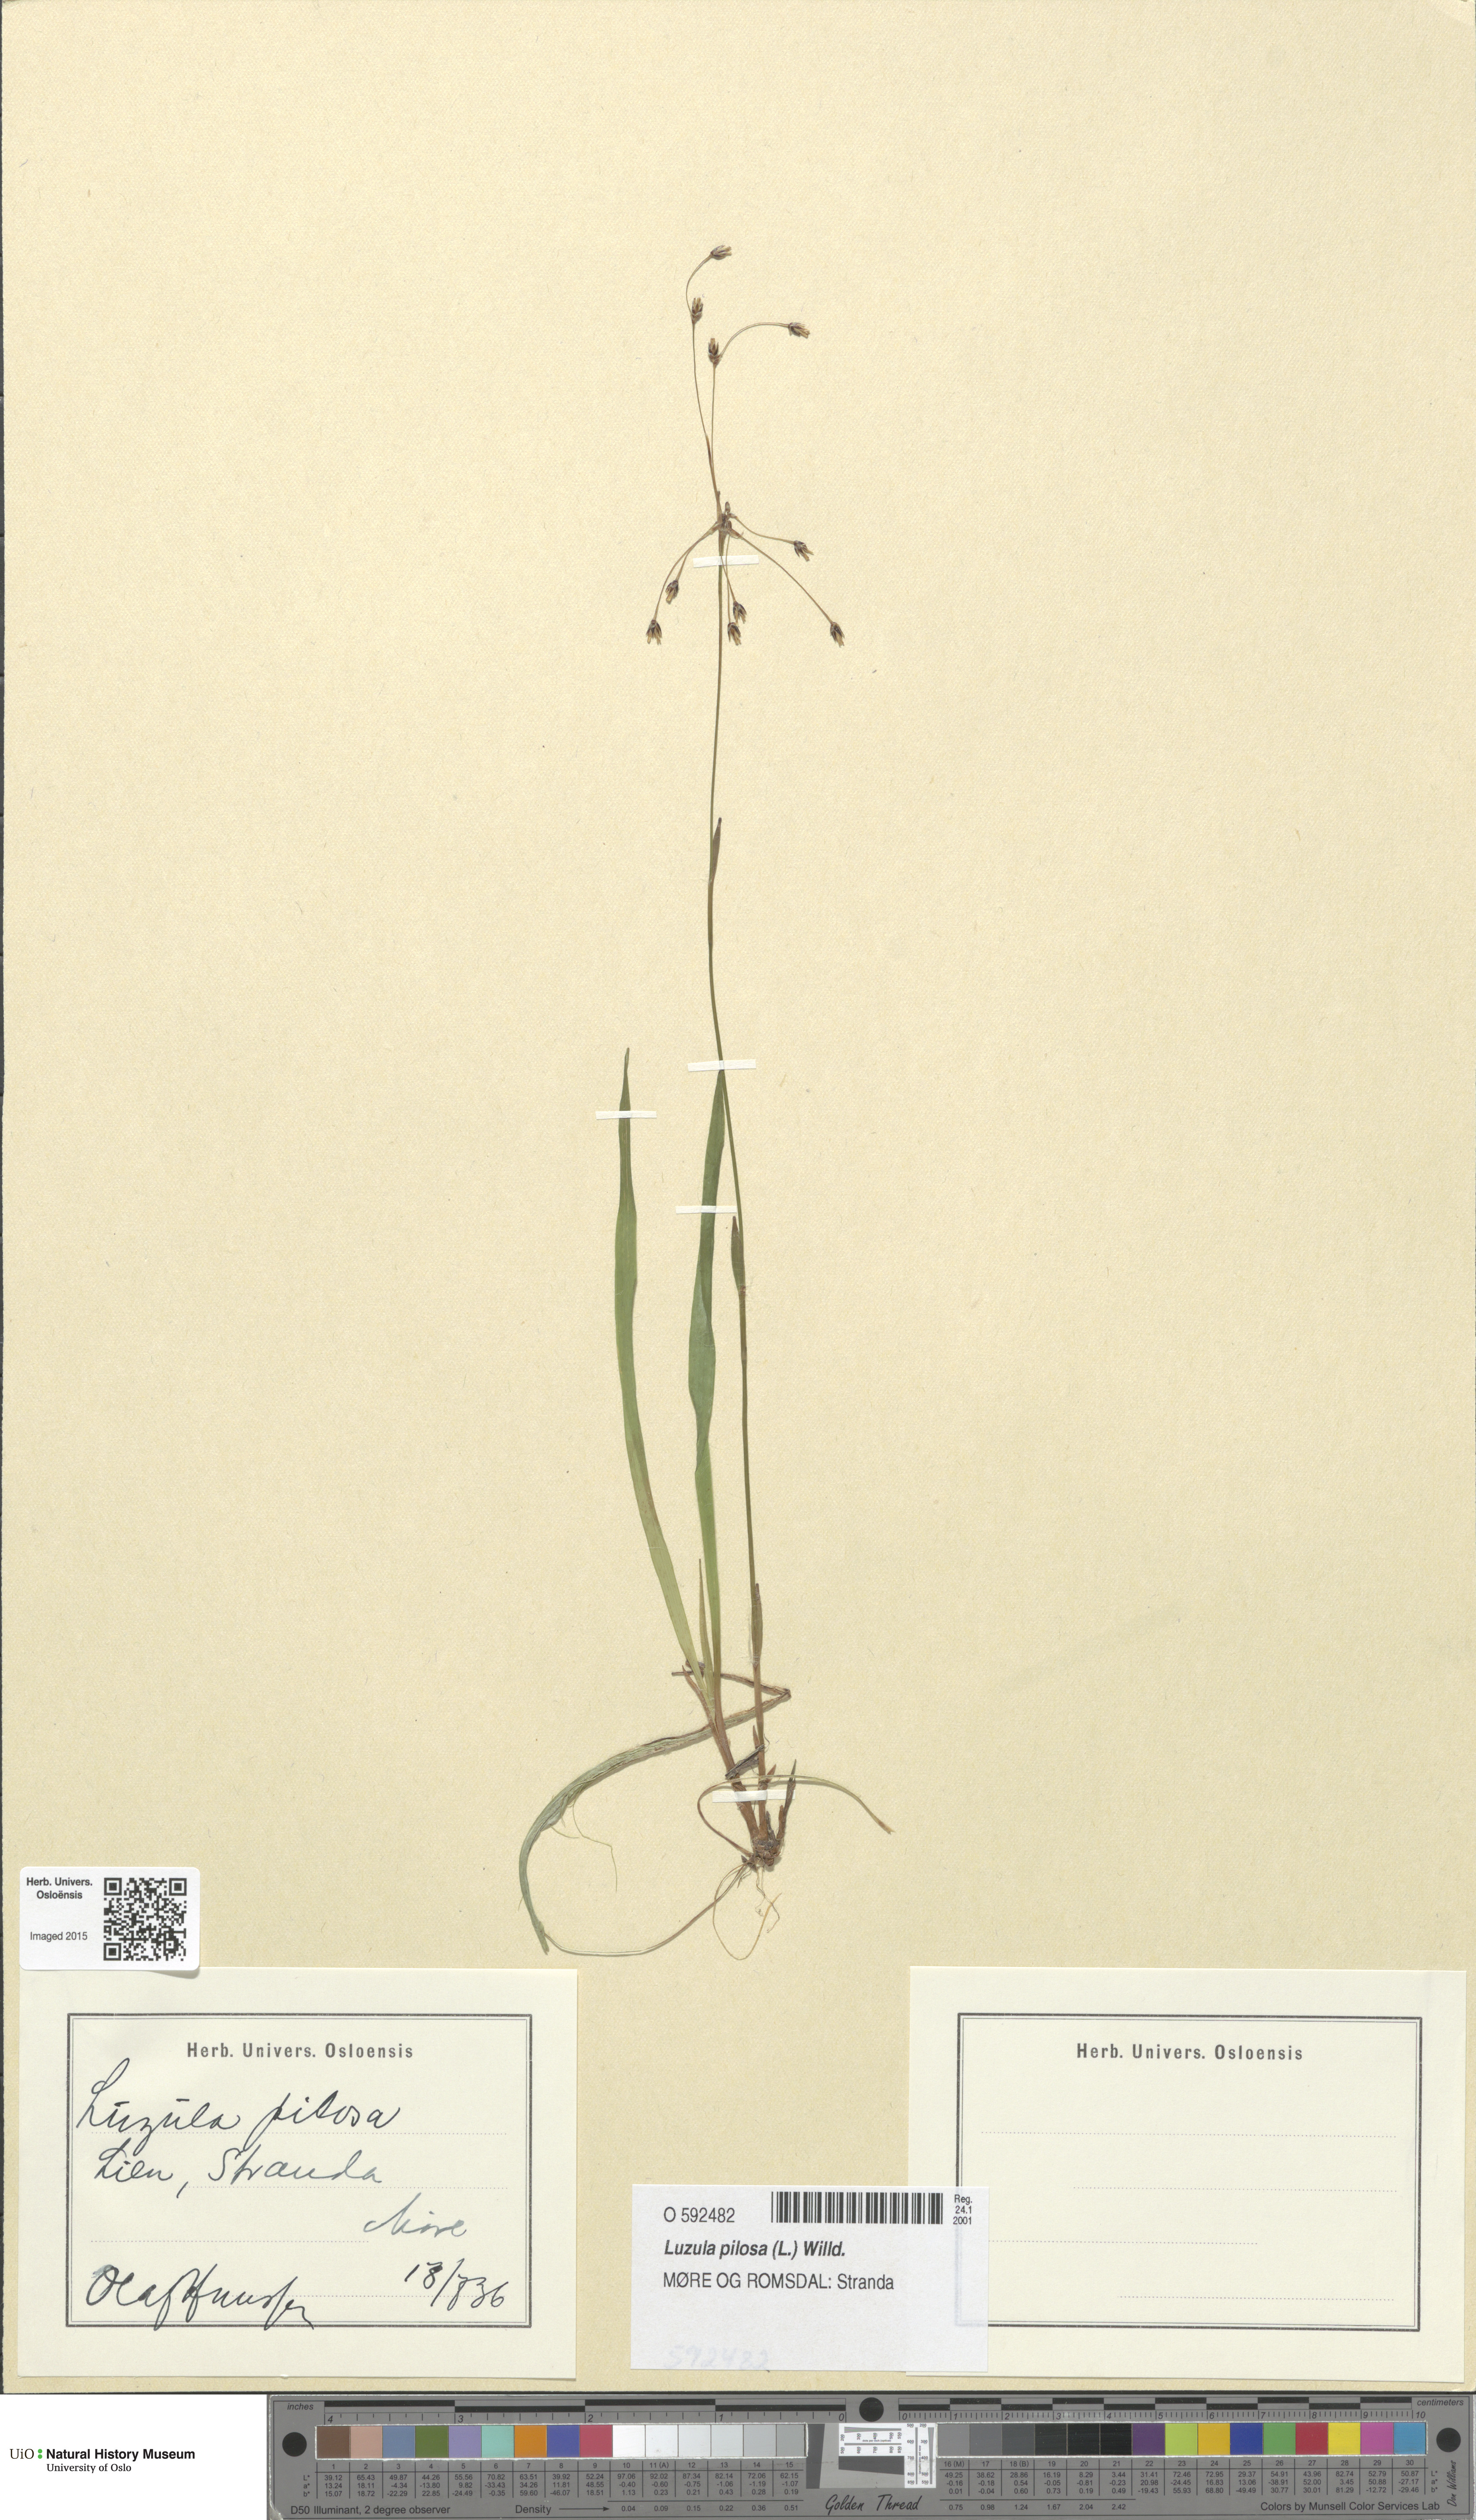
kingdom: Plantae
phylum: Tracheophyta
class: Liliopsida
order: Poales
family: Juncaceae
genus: Luzula
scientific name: Luzula pilosa
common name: Hairy wood-rush
